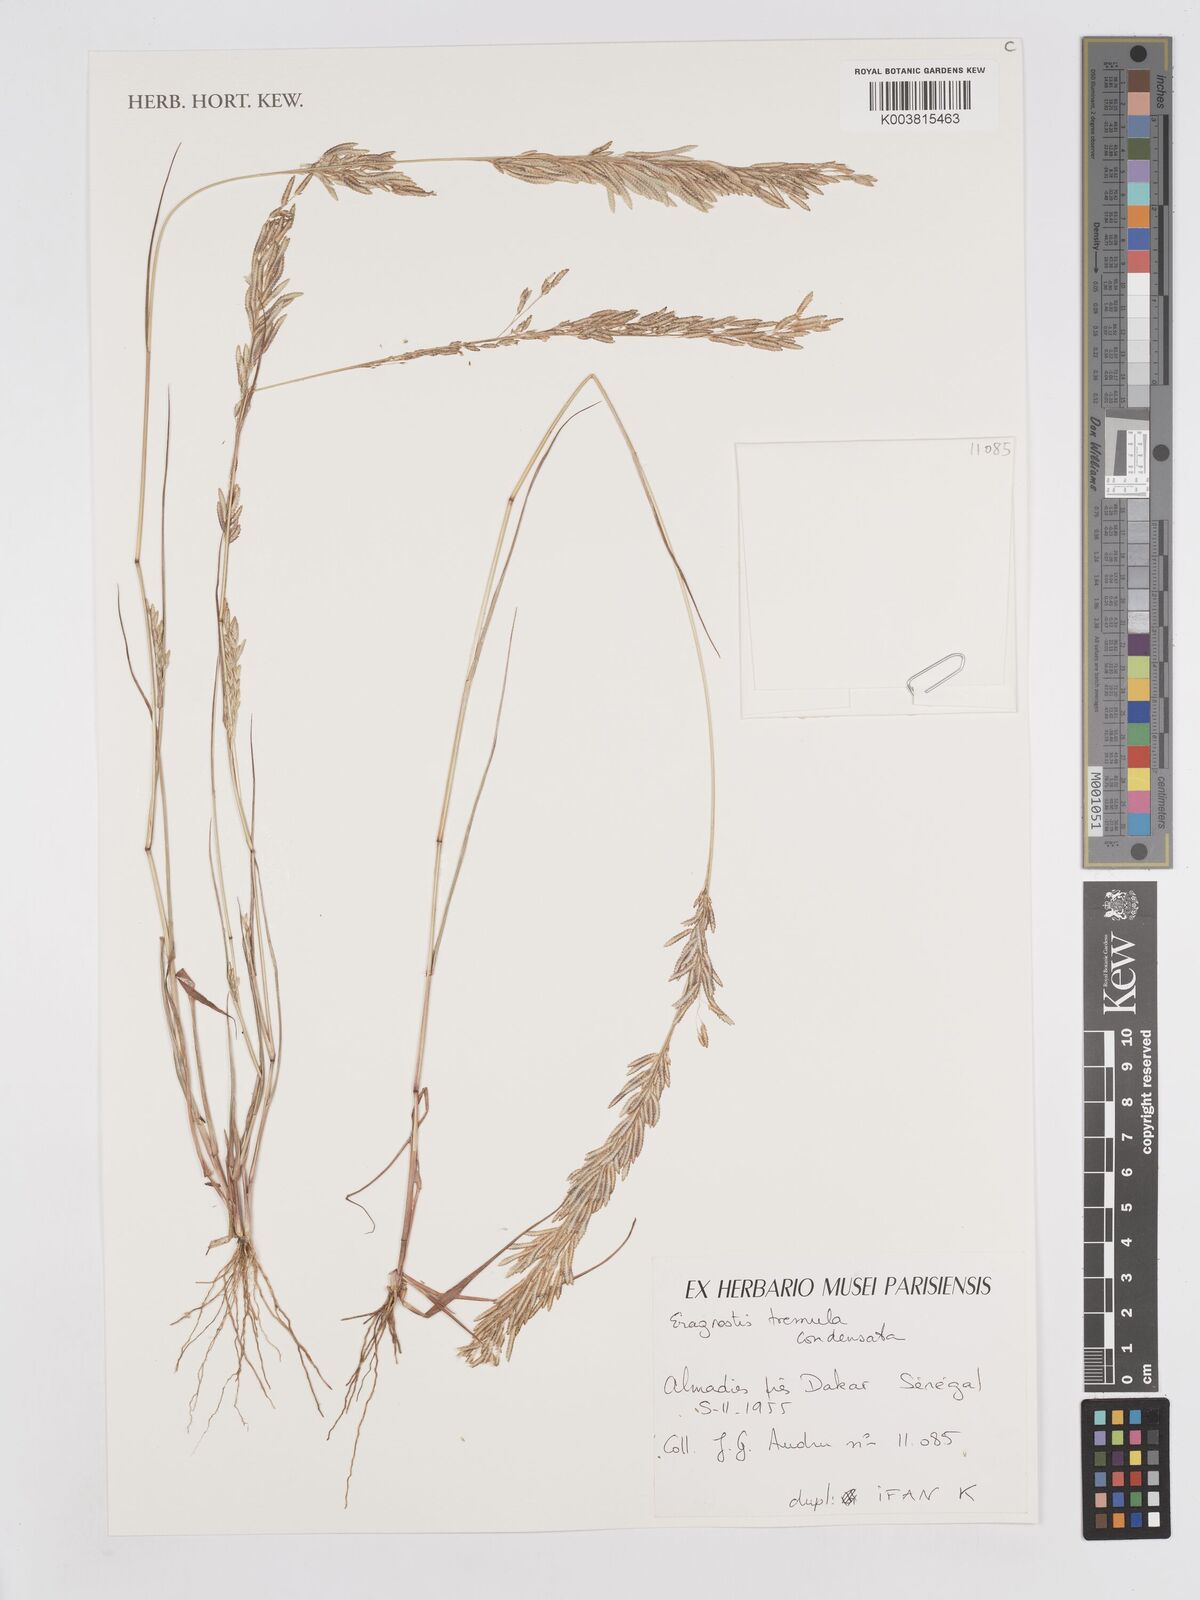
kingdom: Plantae
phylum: Tracheophyta
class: Liliopsida
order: Poales
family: Poaceae
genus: Eragrostis
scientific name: Eragrostis tremula
